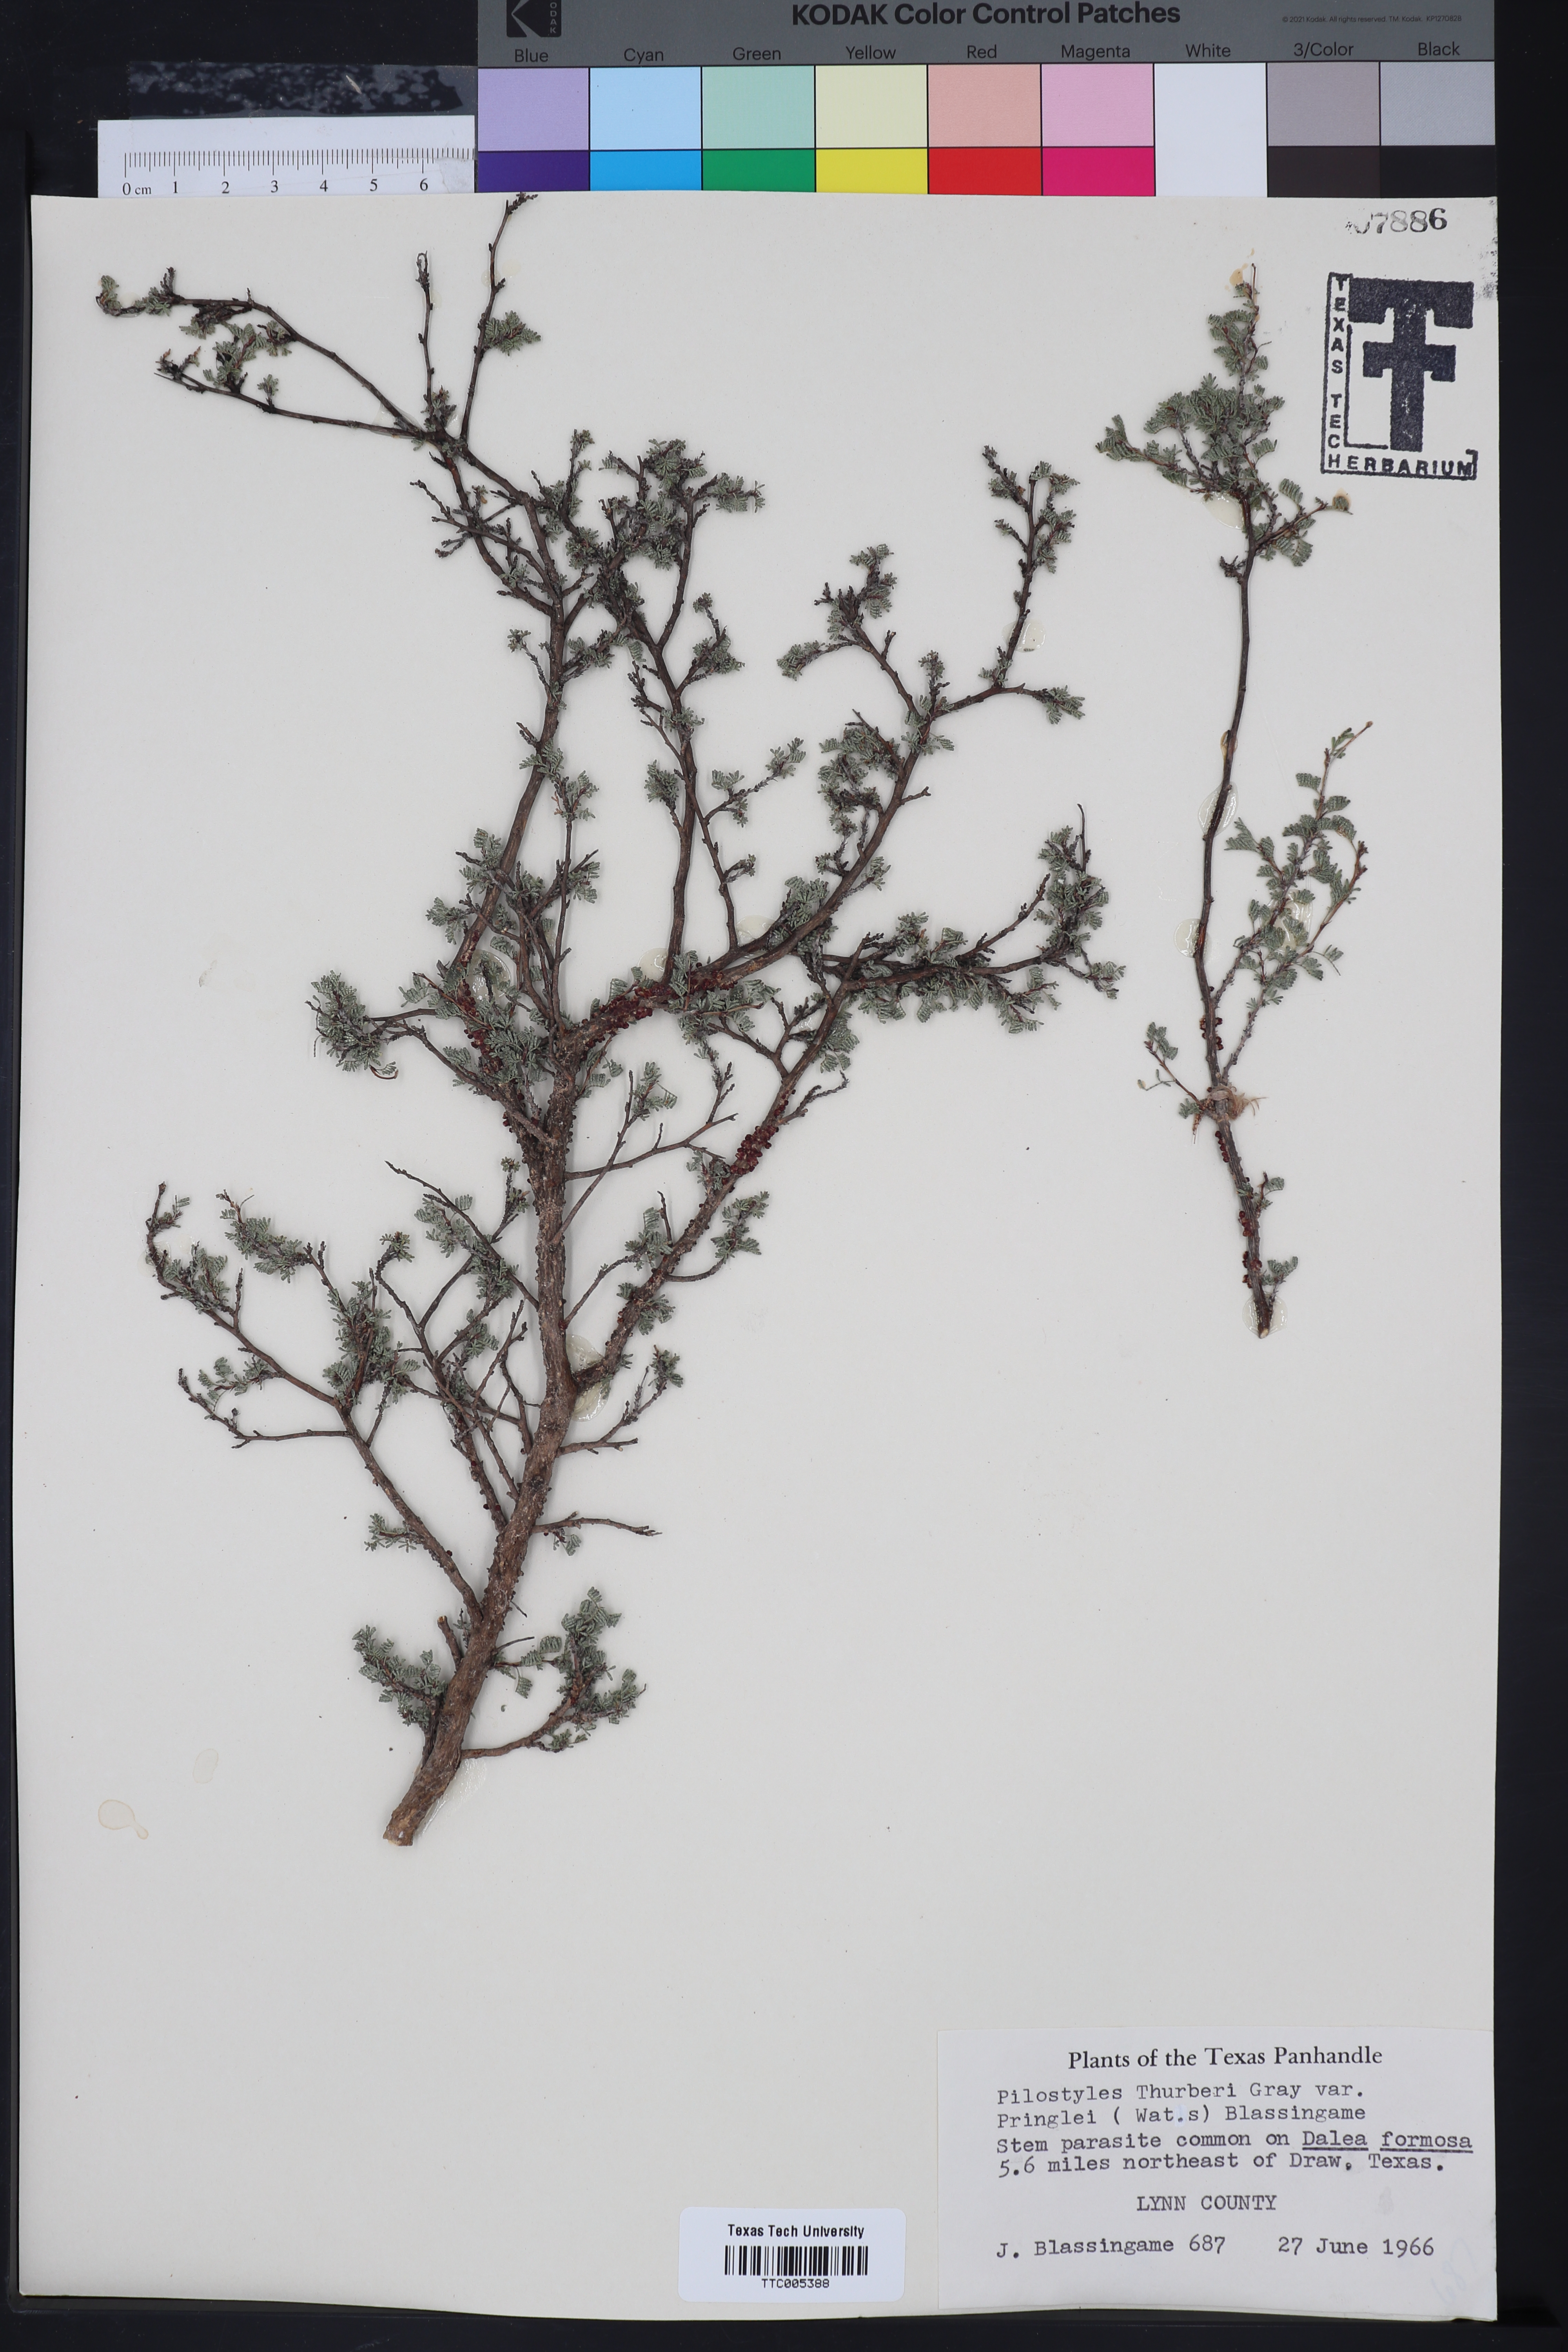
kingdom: Plantae
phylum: Tracheophyta
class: Magnoliopsida
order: Cucurbitales
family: Apodanthaceae
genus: Pilostyles
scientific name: Pilostyles thurberi
